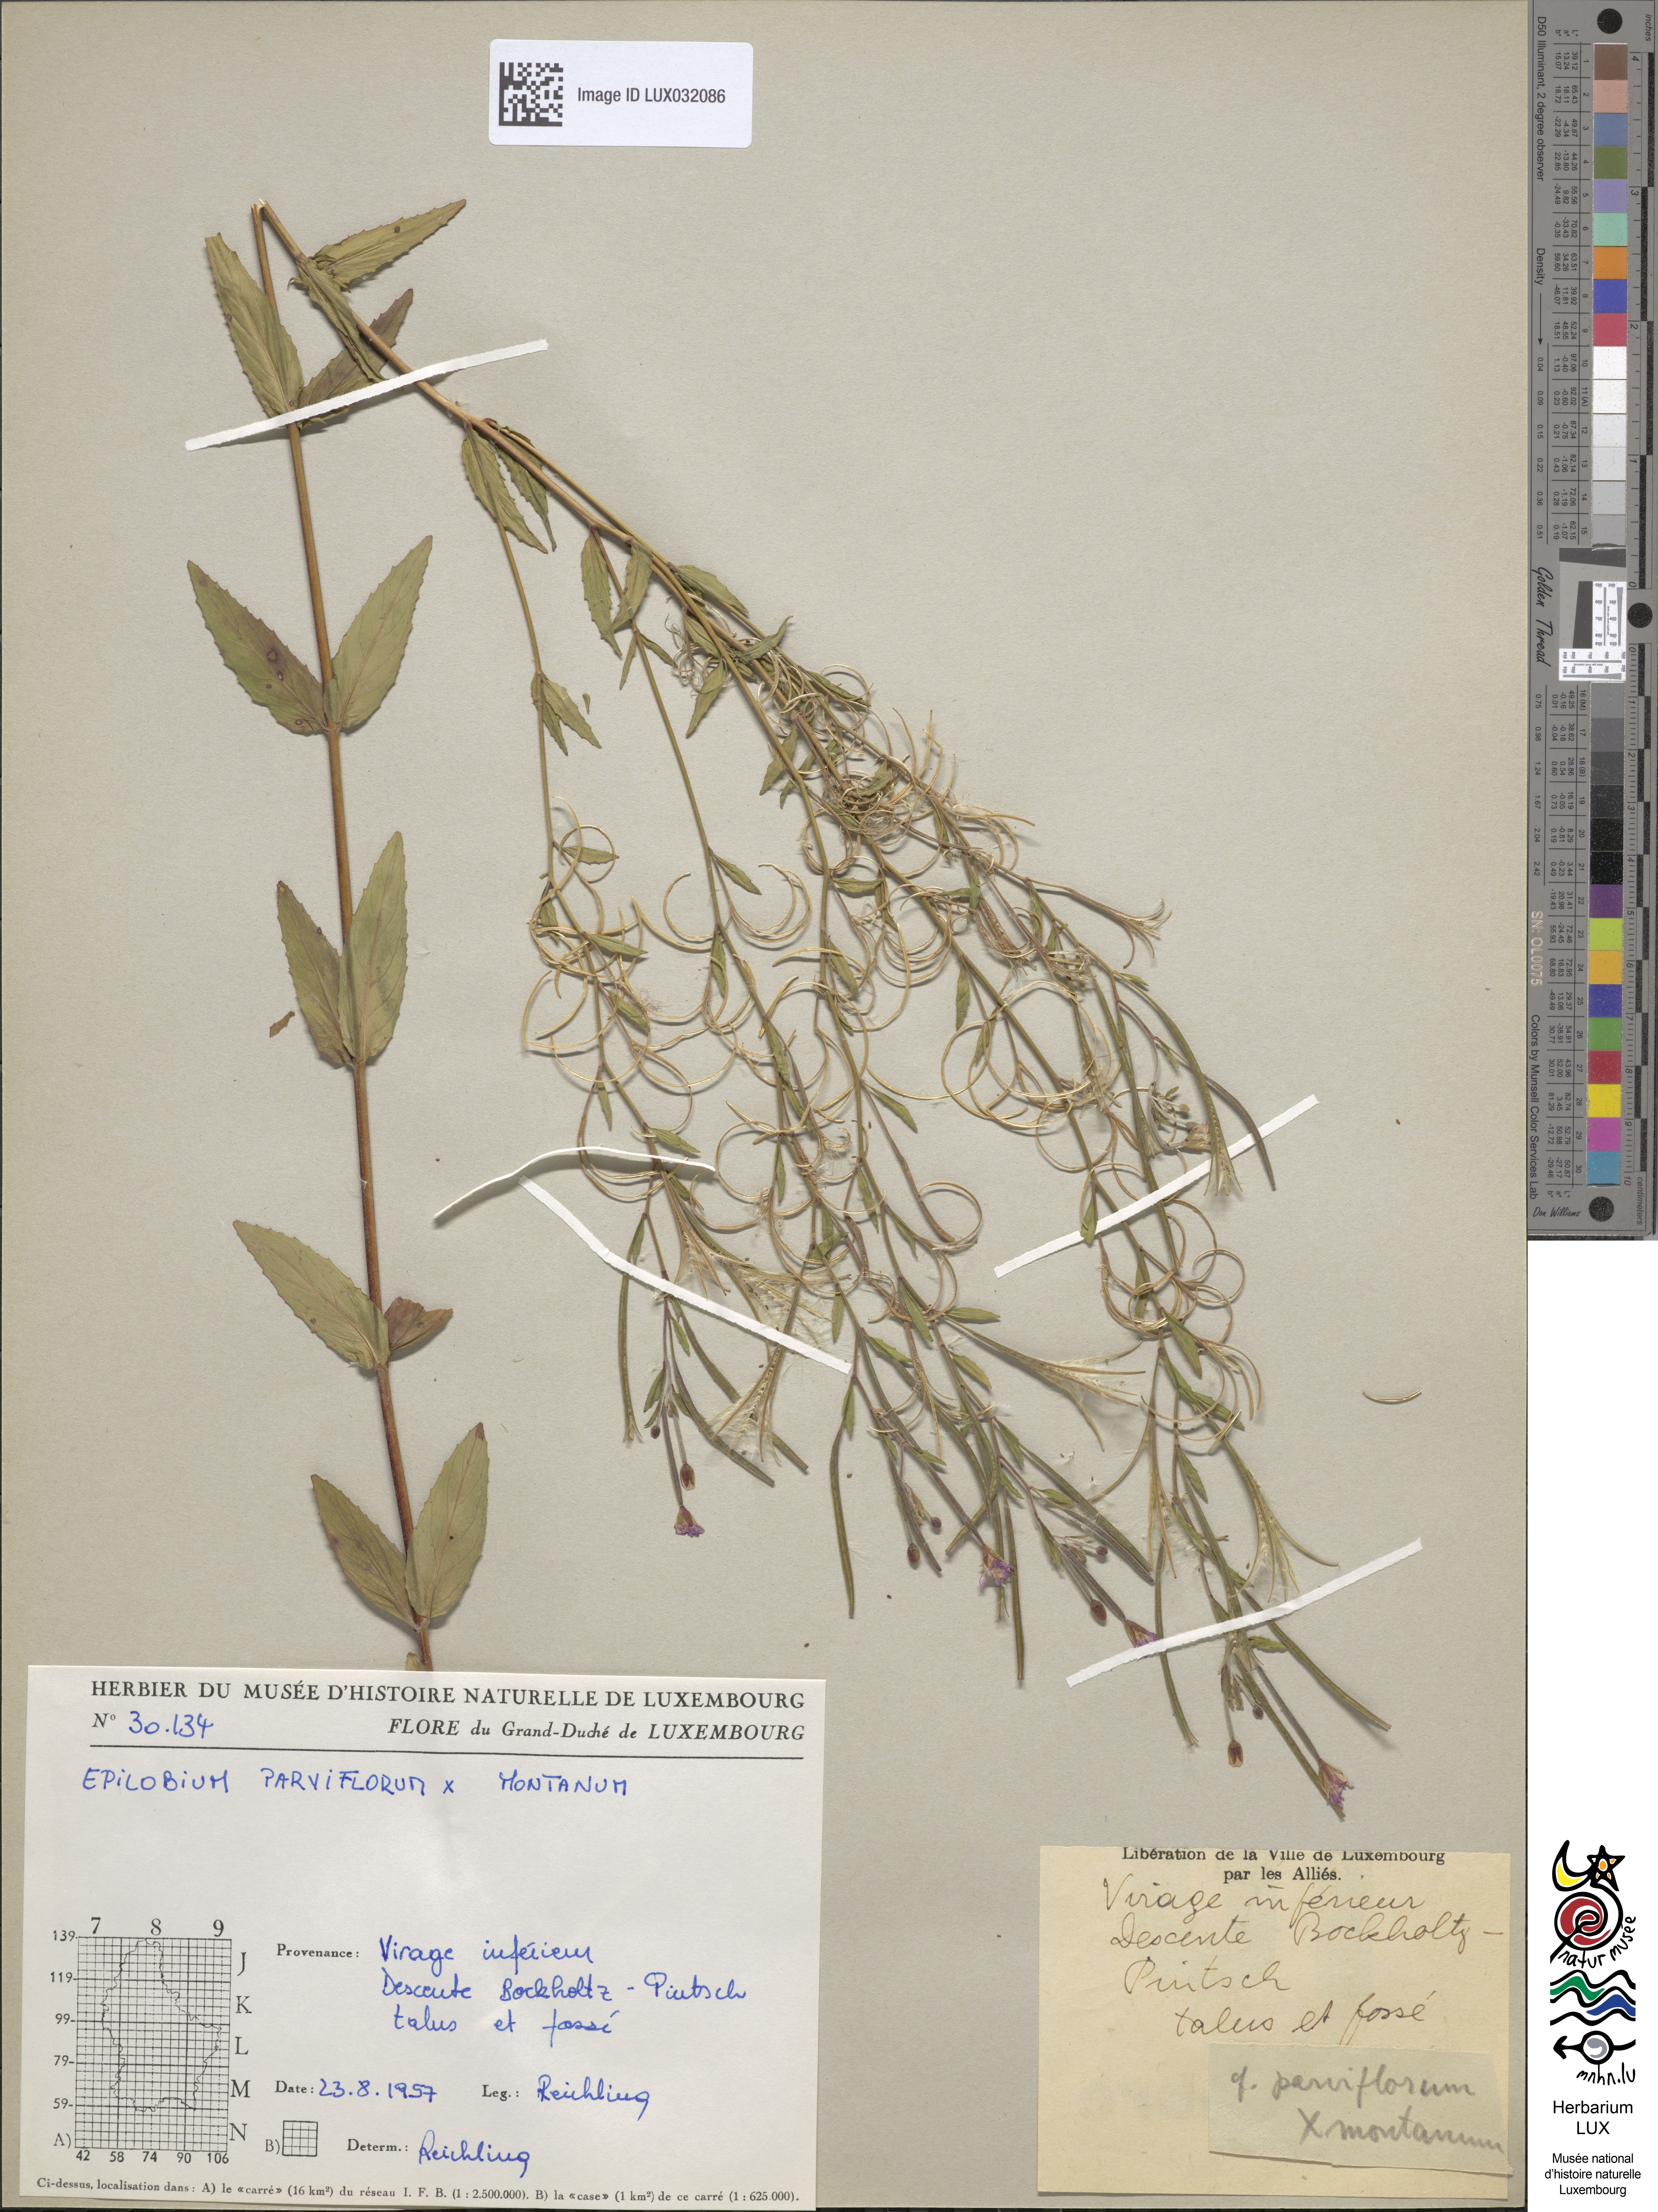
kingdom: Plantae
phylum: Tracheophyta
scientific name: Tracheophyta
